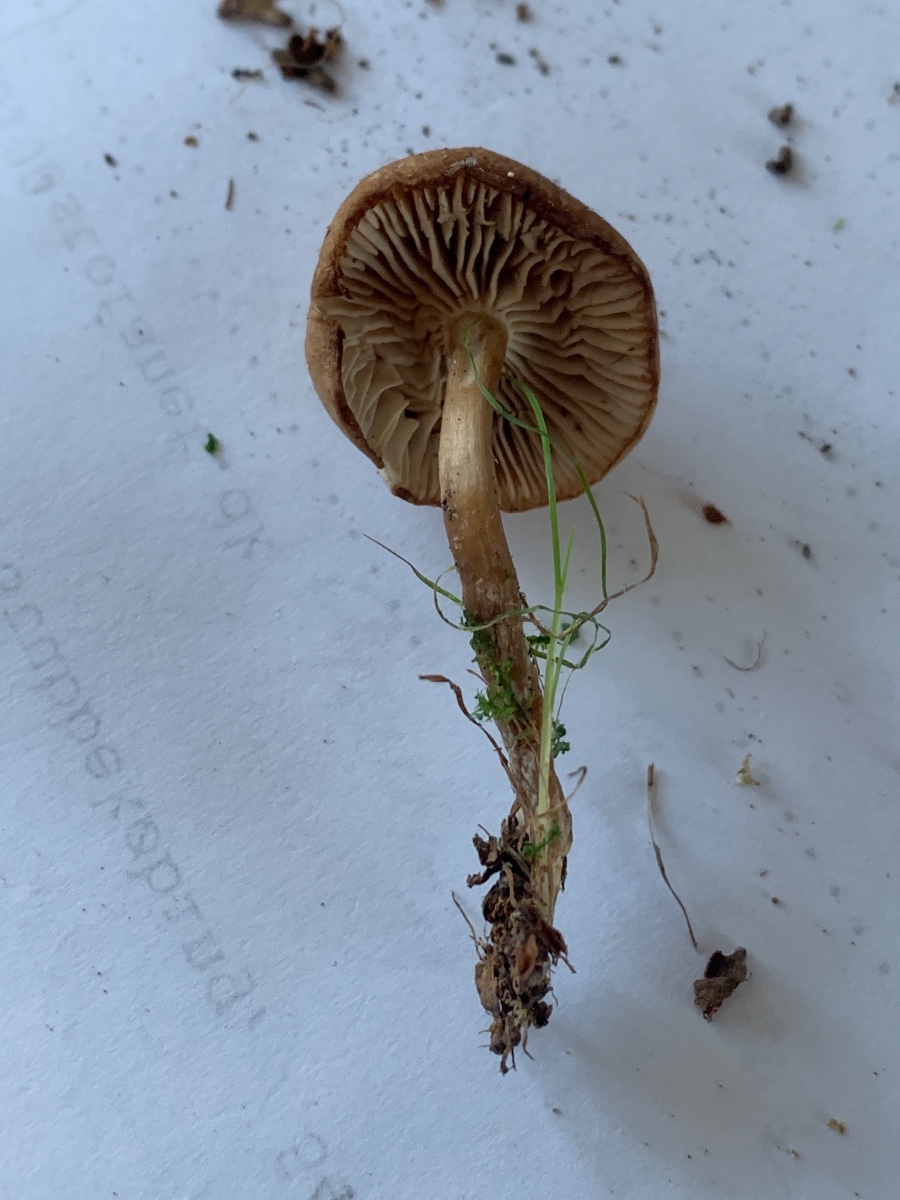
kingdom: Fungi
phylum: Basidiomycota
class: Agaricomycetes
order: Agaricales
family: Tricholomataceae
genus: Clitocybe
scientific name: Clitocybe fragrans
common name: vellugtende tragthat
